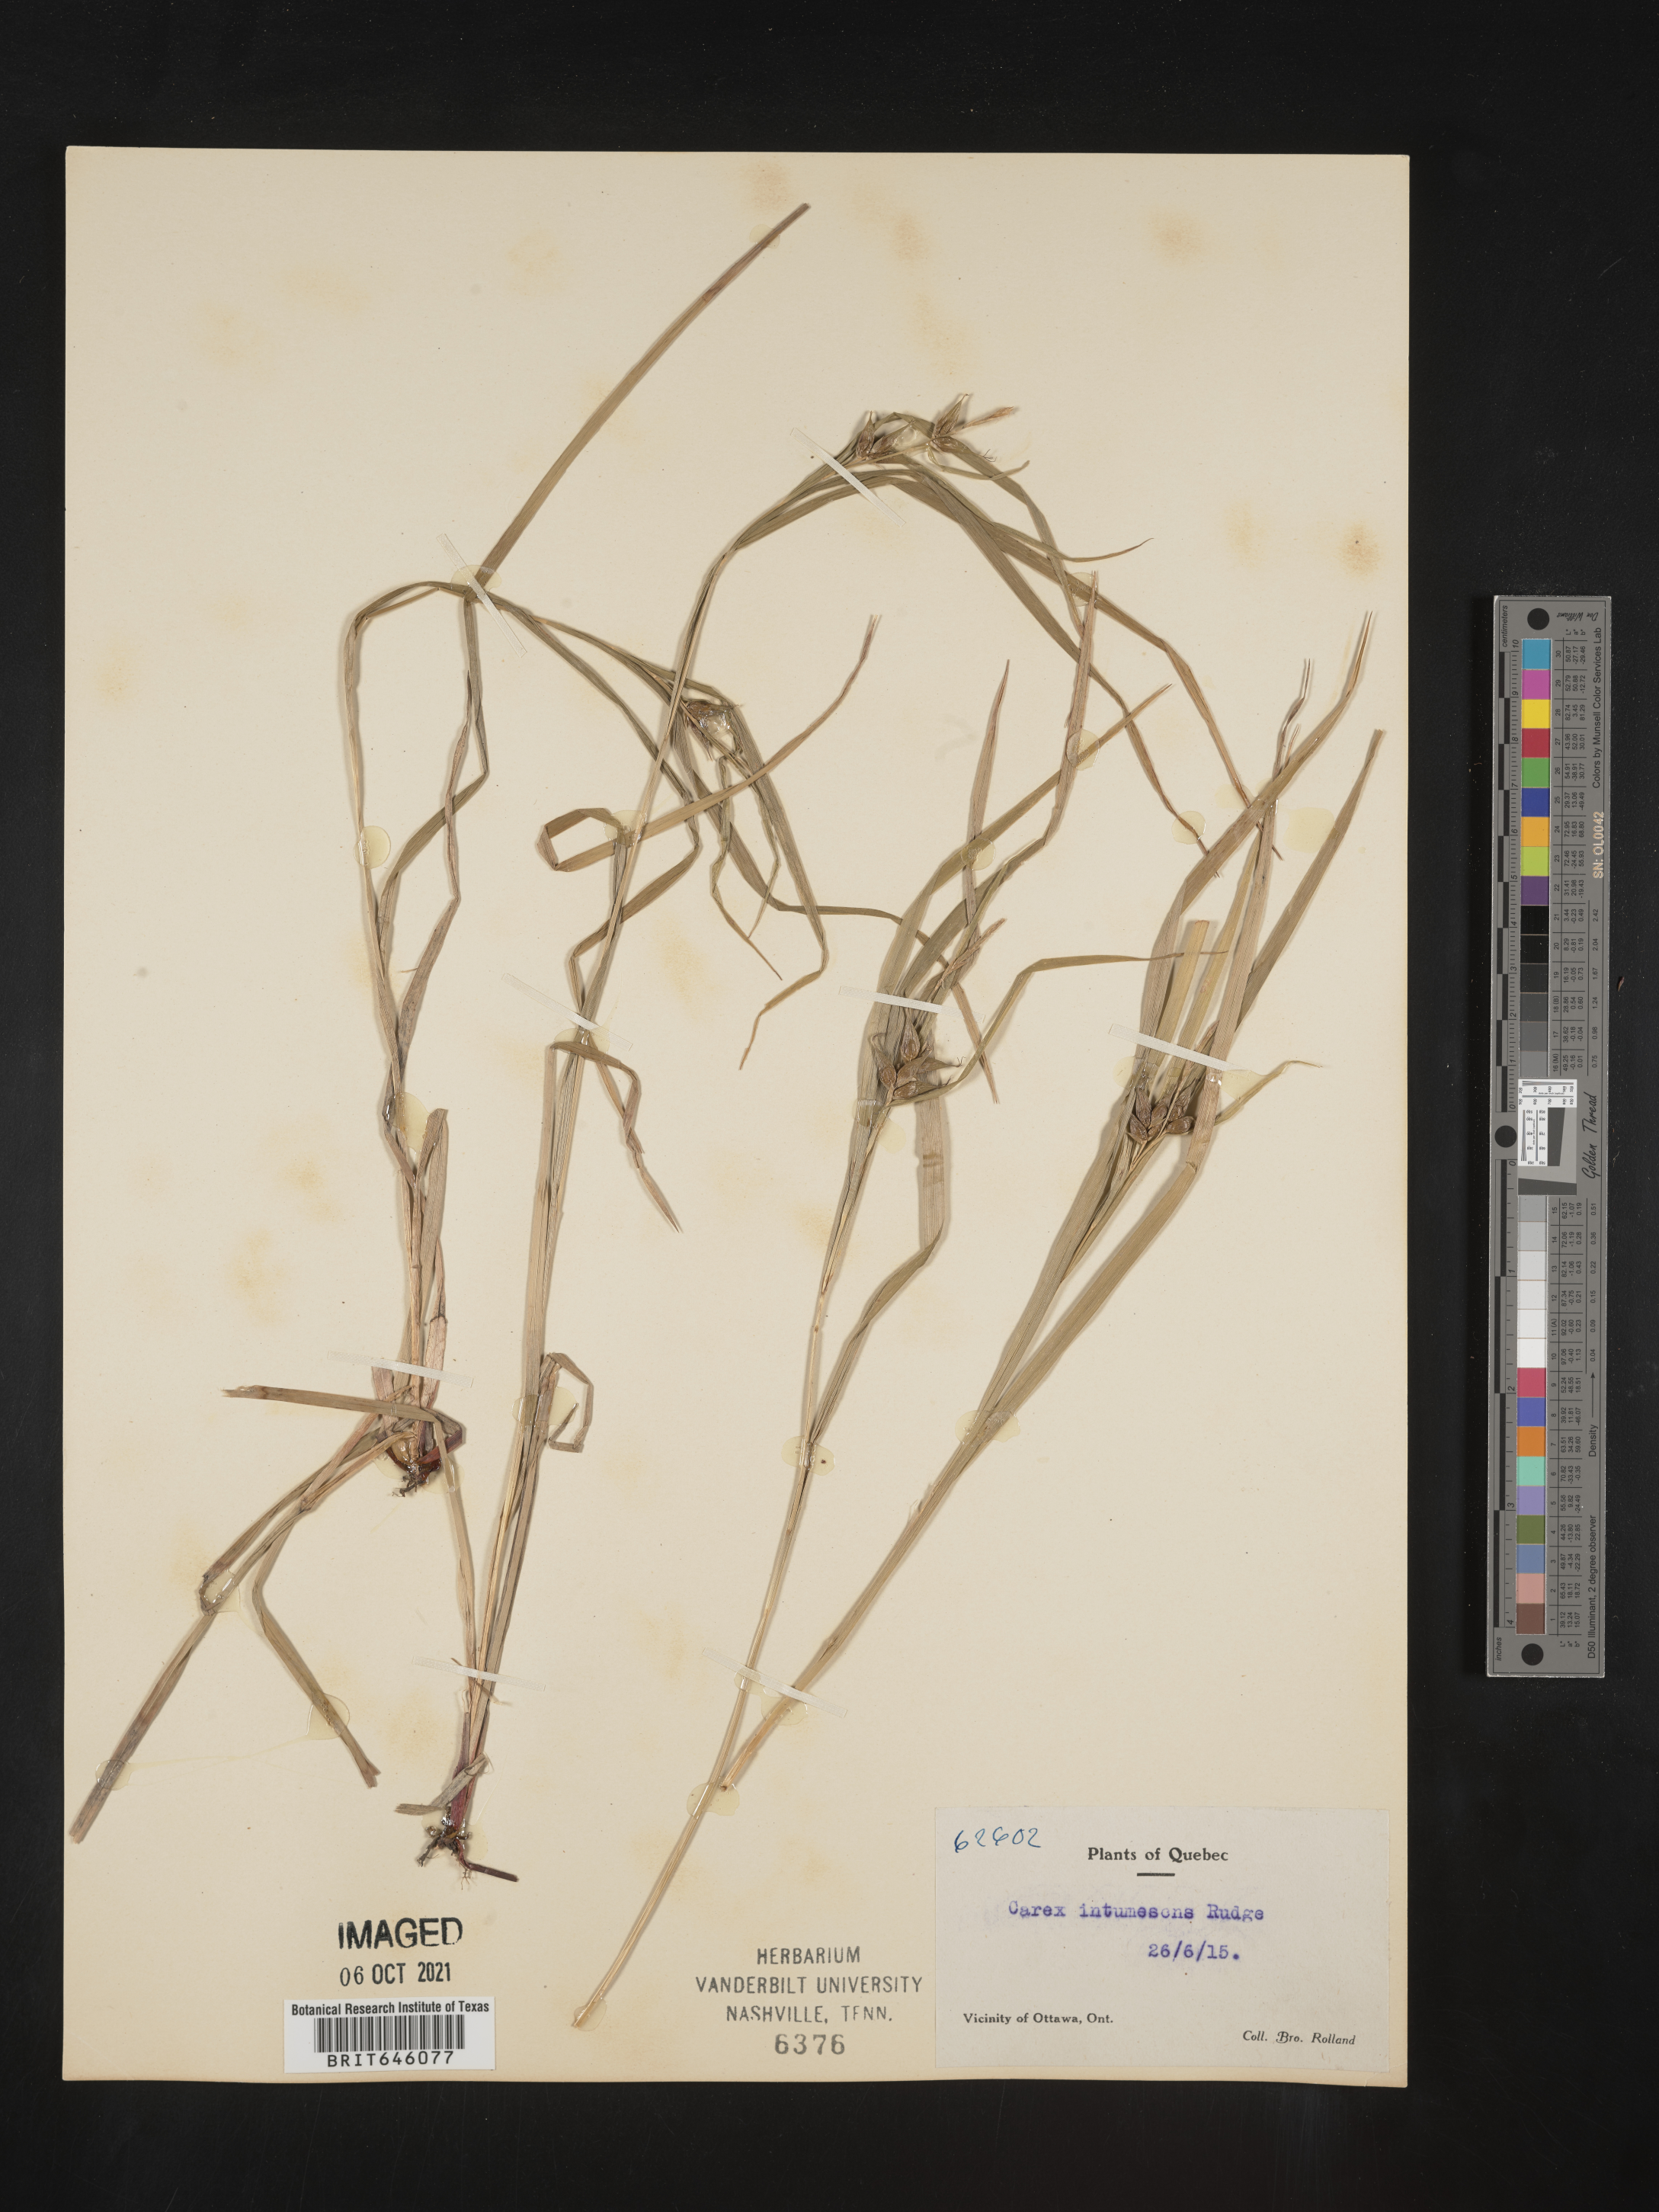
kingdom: Plantae
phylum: Tracheophyta
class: Liliopsida
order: Poales
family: Cyperaceae
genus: Carex
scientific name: Carex intumescens
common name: Greater bladder sedge
